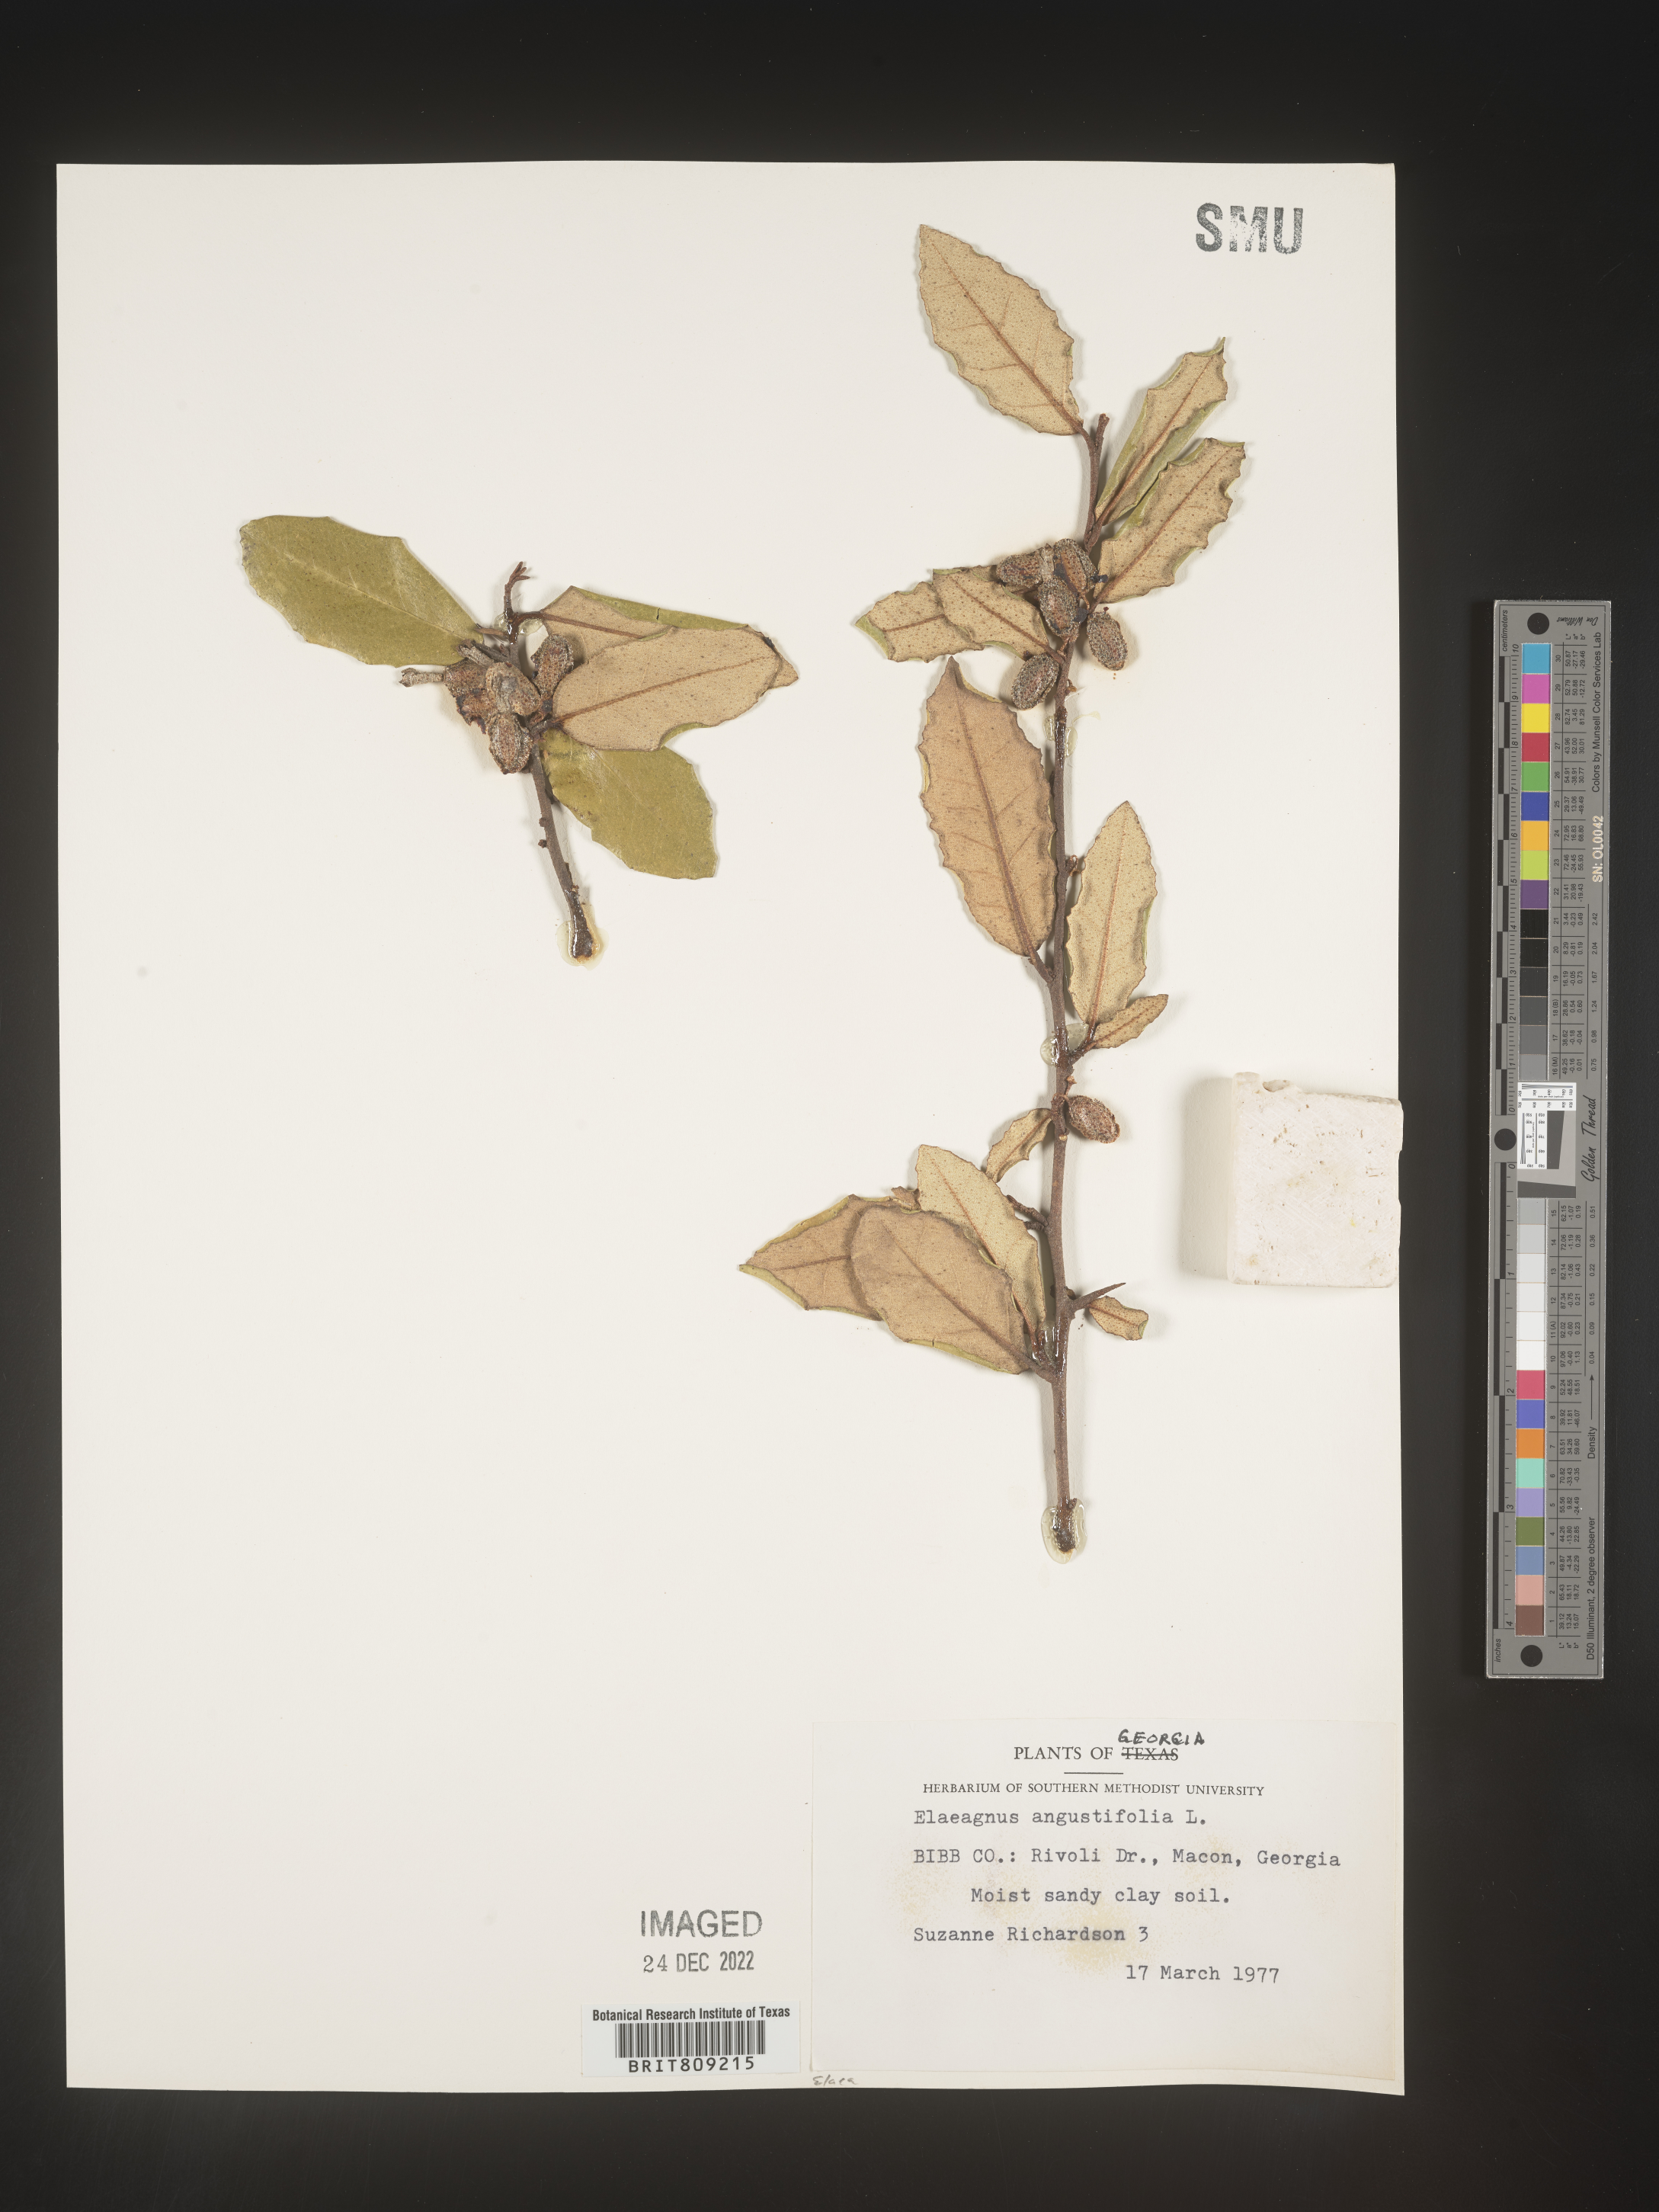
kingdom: Plantae
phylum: Tracheophyta
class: Magnoliopsida
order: Rosales
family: Elaeagnaceae
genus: Elaeagnus
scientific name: Elaeagnus angustifolia
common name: Russian olive
